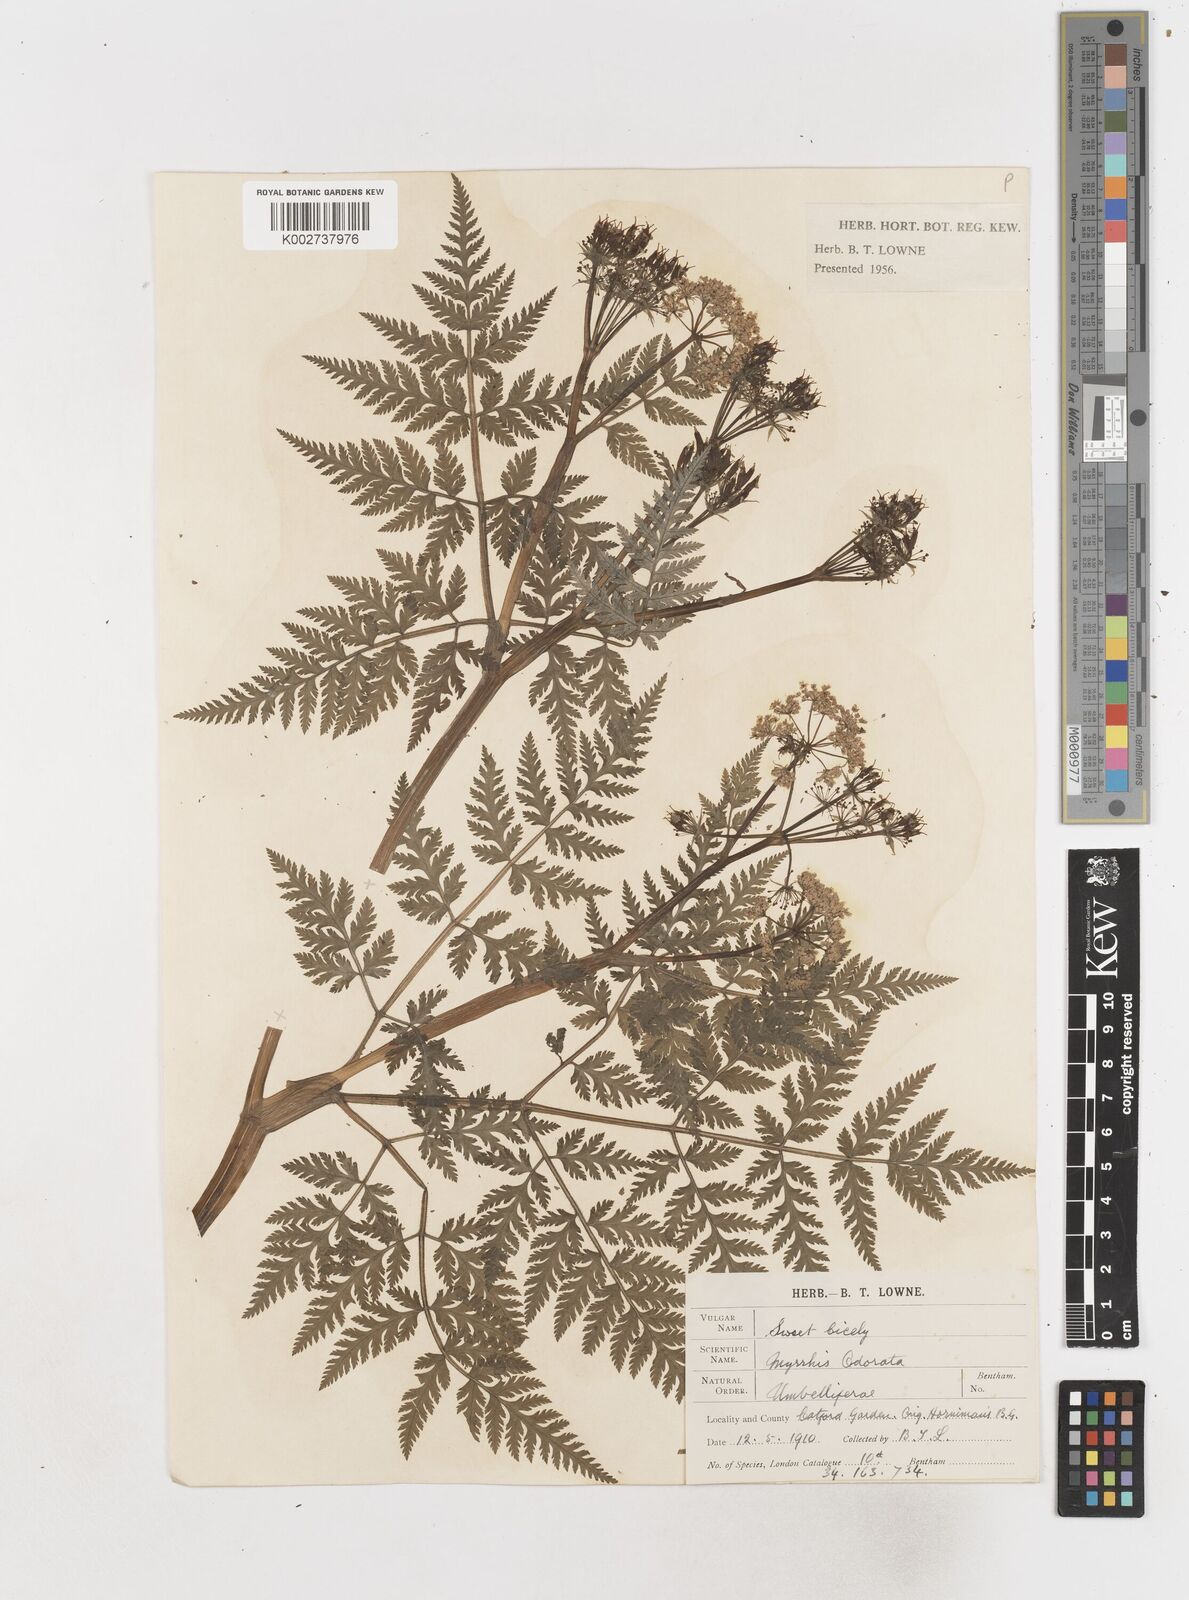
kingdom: Plantae
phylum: Tracheophyta
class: Magnoliopsida
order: Apiales
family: Apiaceae
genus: Myrrhis
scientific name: Myrrhis odorata
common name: Sweet cicely
